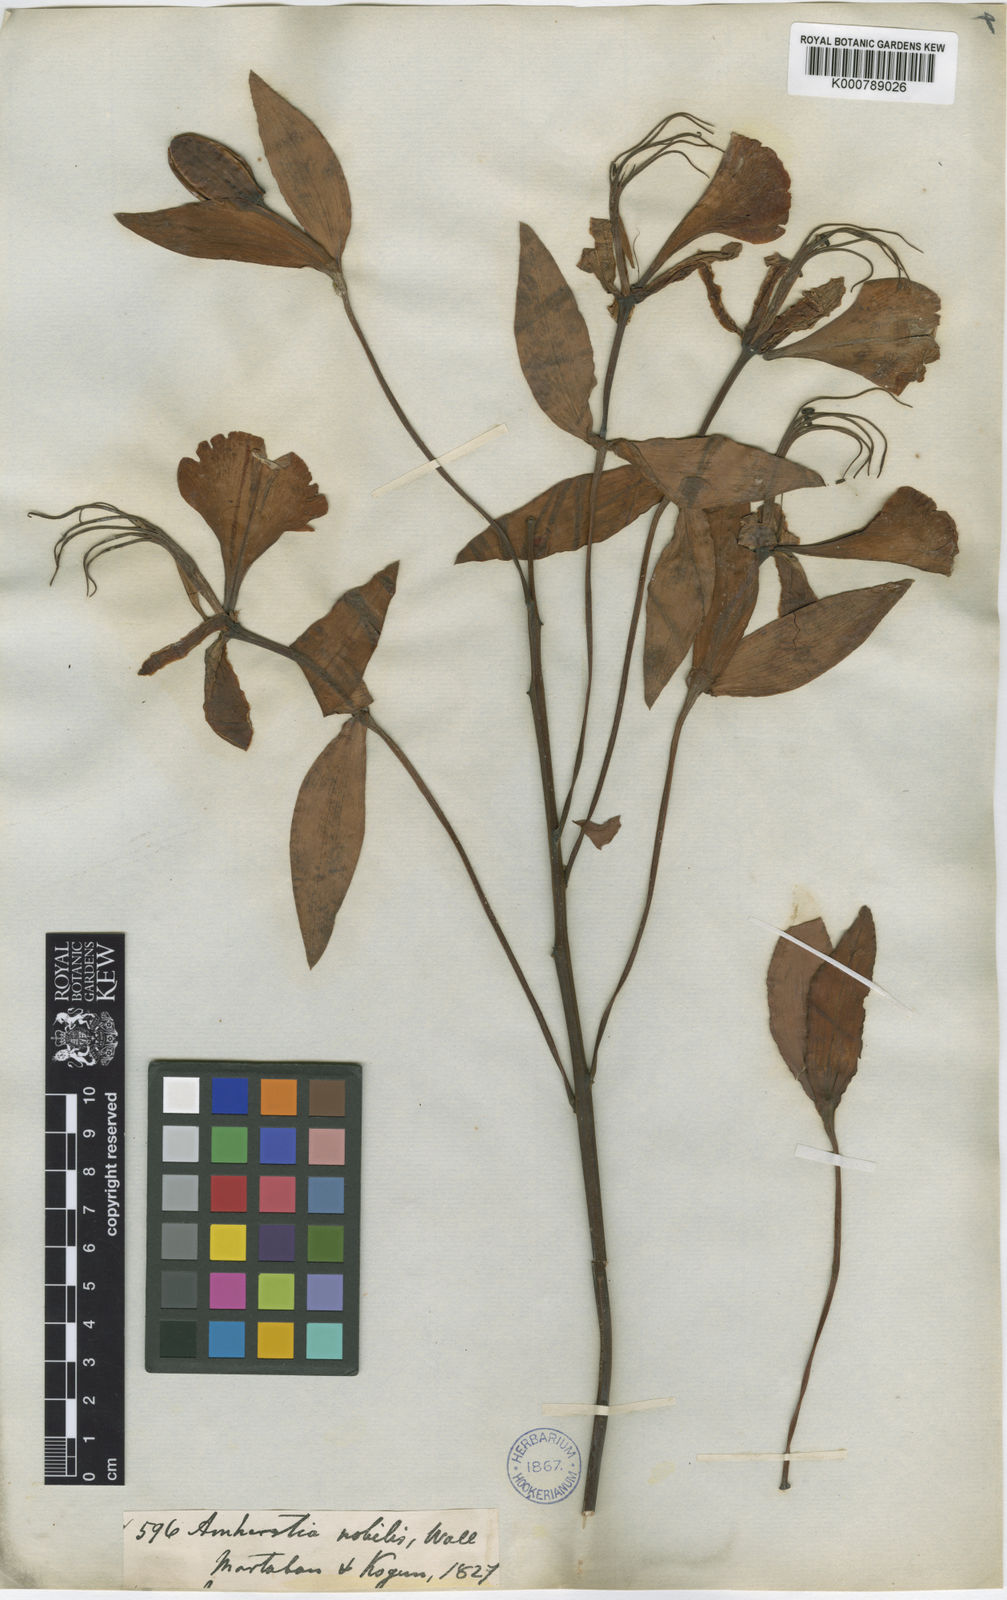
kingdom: Plantae
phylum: Tracheophyta
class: Magnoliopsida
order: Fabales
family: Fabaceae
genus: Amherstia
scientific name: Amherstia nobilis
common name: Pride-of-burma
